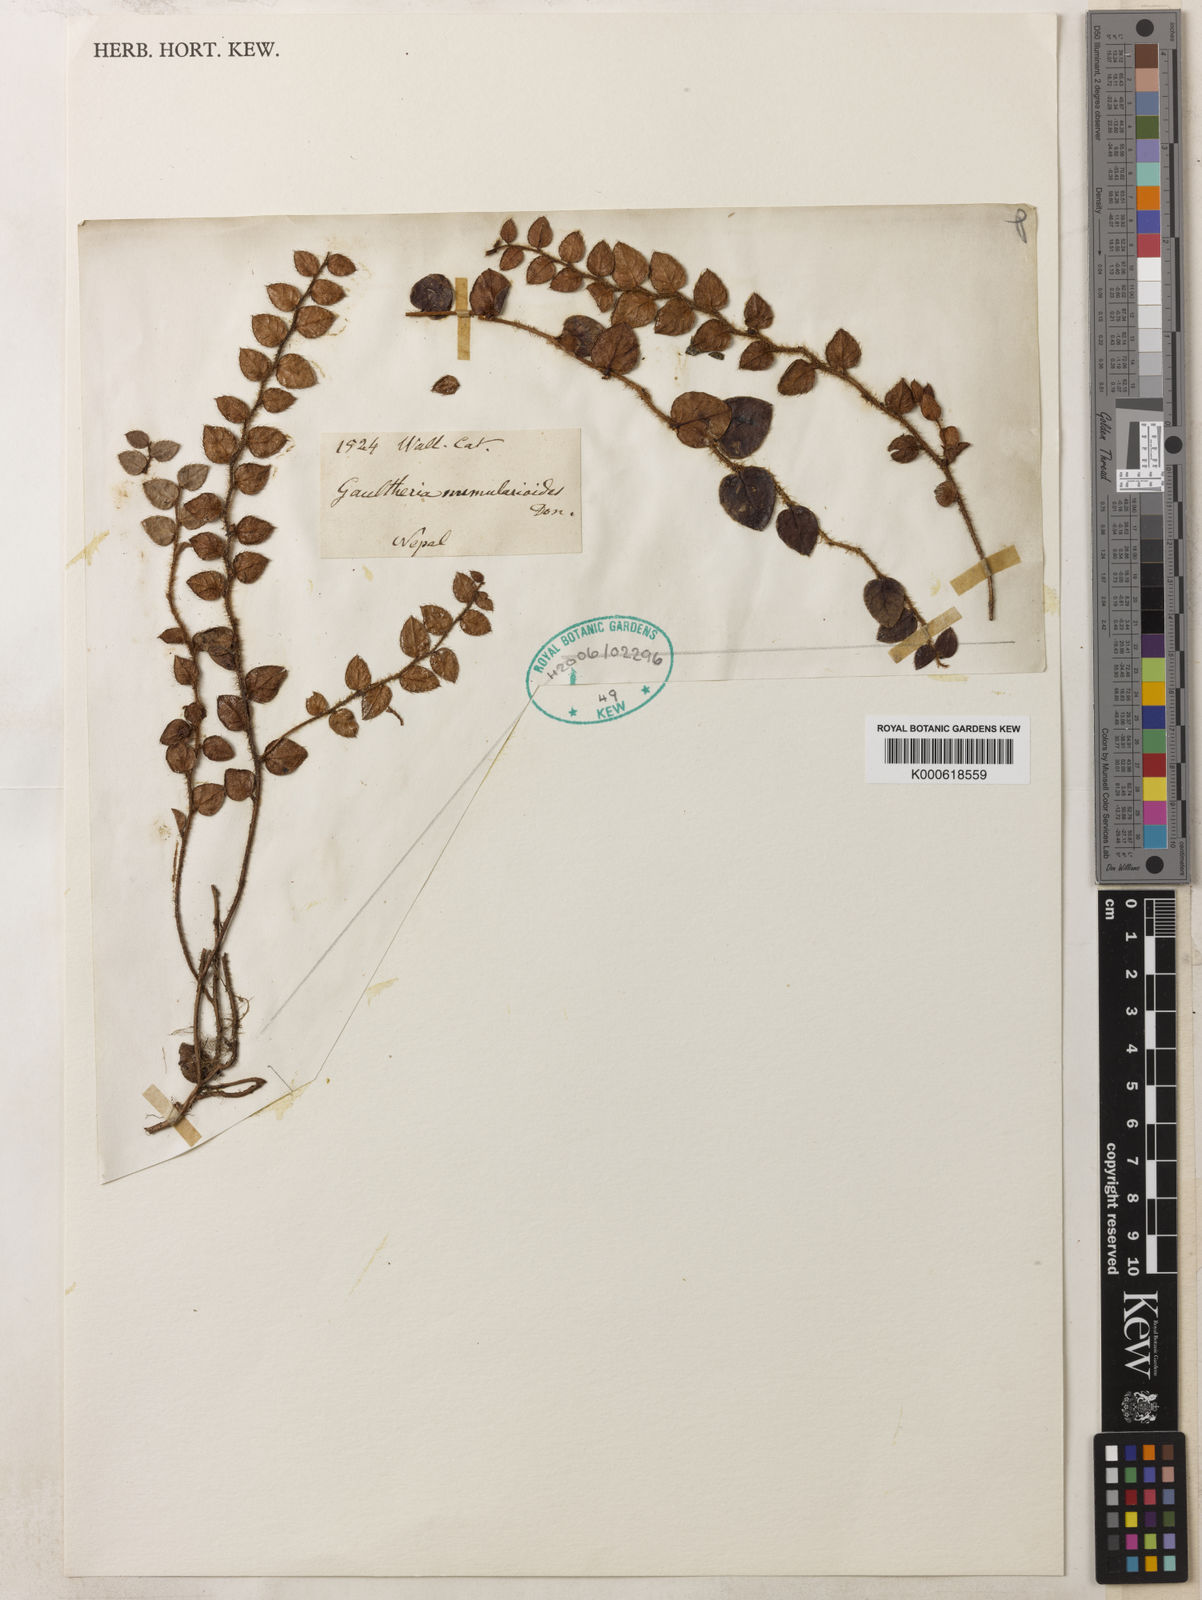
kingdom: Plantae
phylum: Tracheophyta
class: Magnoliopsida
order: Ericales
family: Ericaceae
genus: Gaultheria
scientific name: Gaultheria nummularioides
